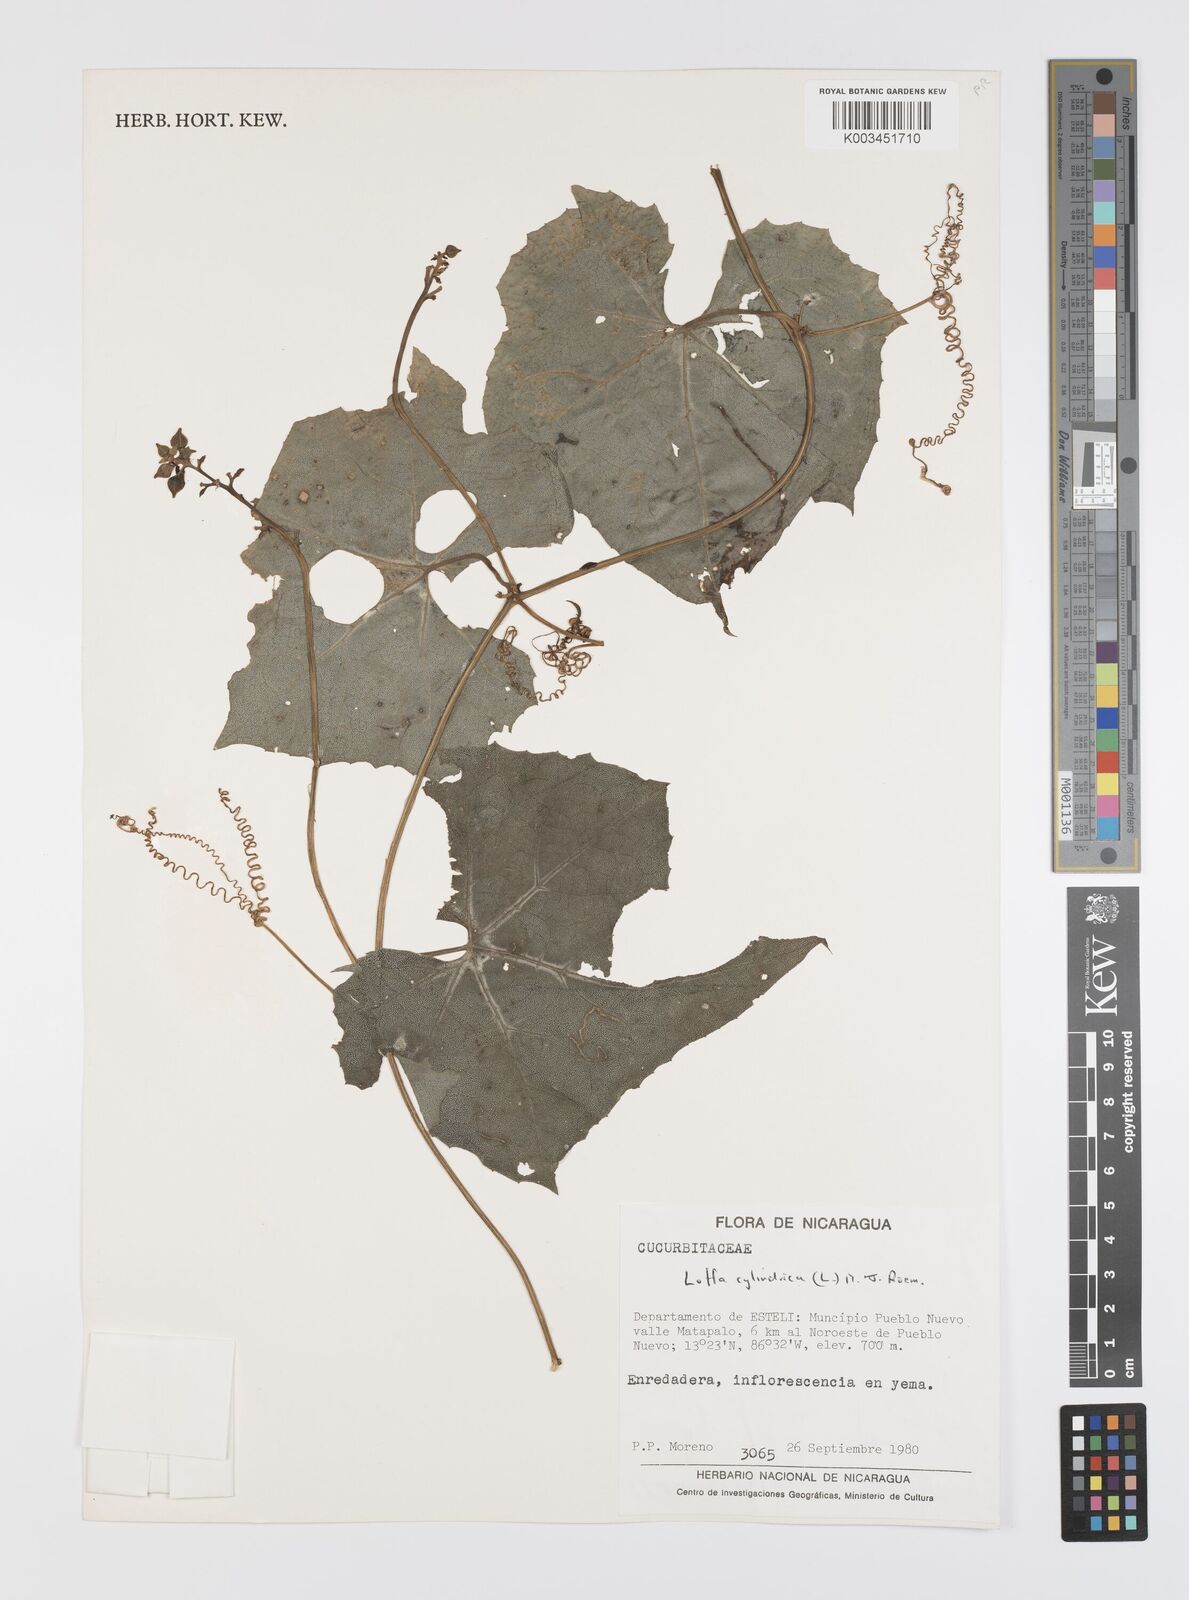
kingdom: Plantae
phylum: Tracheophyta
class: Magnoliopsida
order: Cucurbitales
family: Cucurbitaceae
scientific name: Cucurbitaceae
